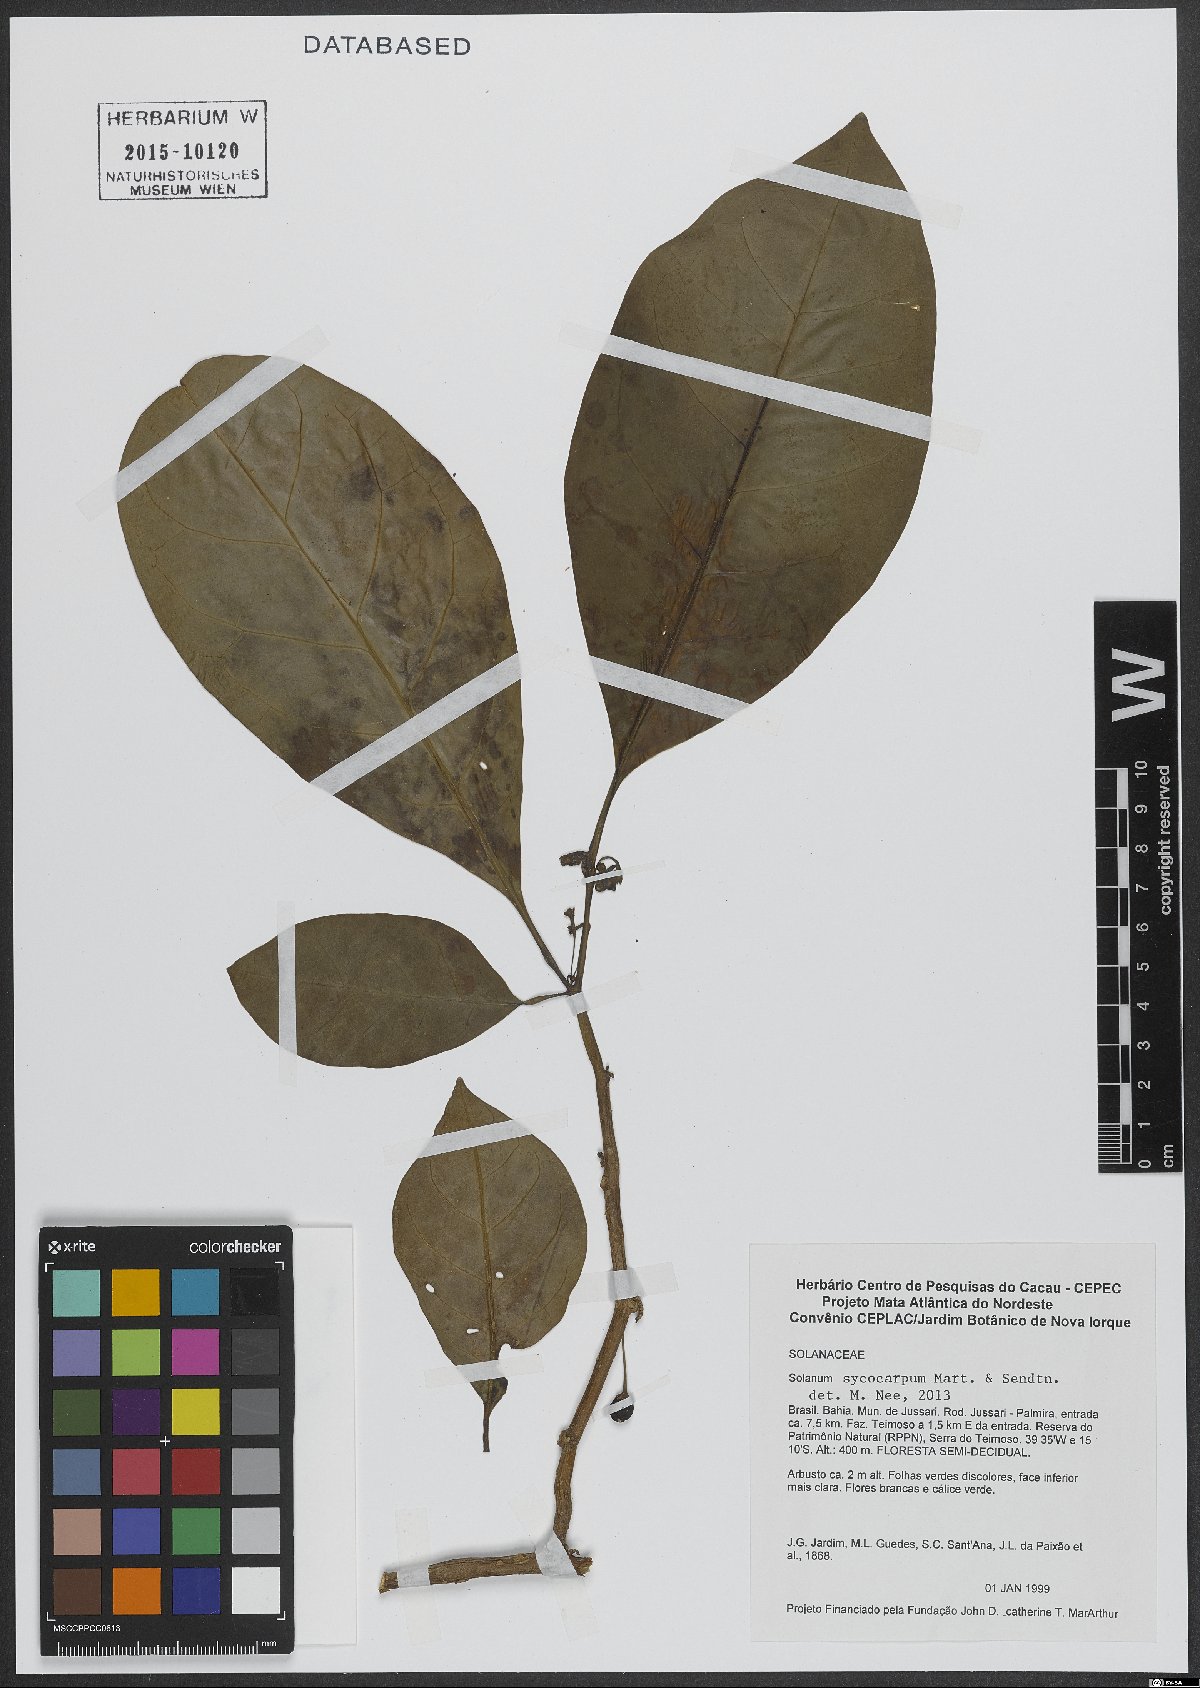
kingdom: Plantae
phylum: Tracheophyta
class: Magnoliopsida
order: Solanales
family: Solanaceae
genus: Solanum
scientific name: Solanum sycocarpum
